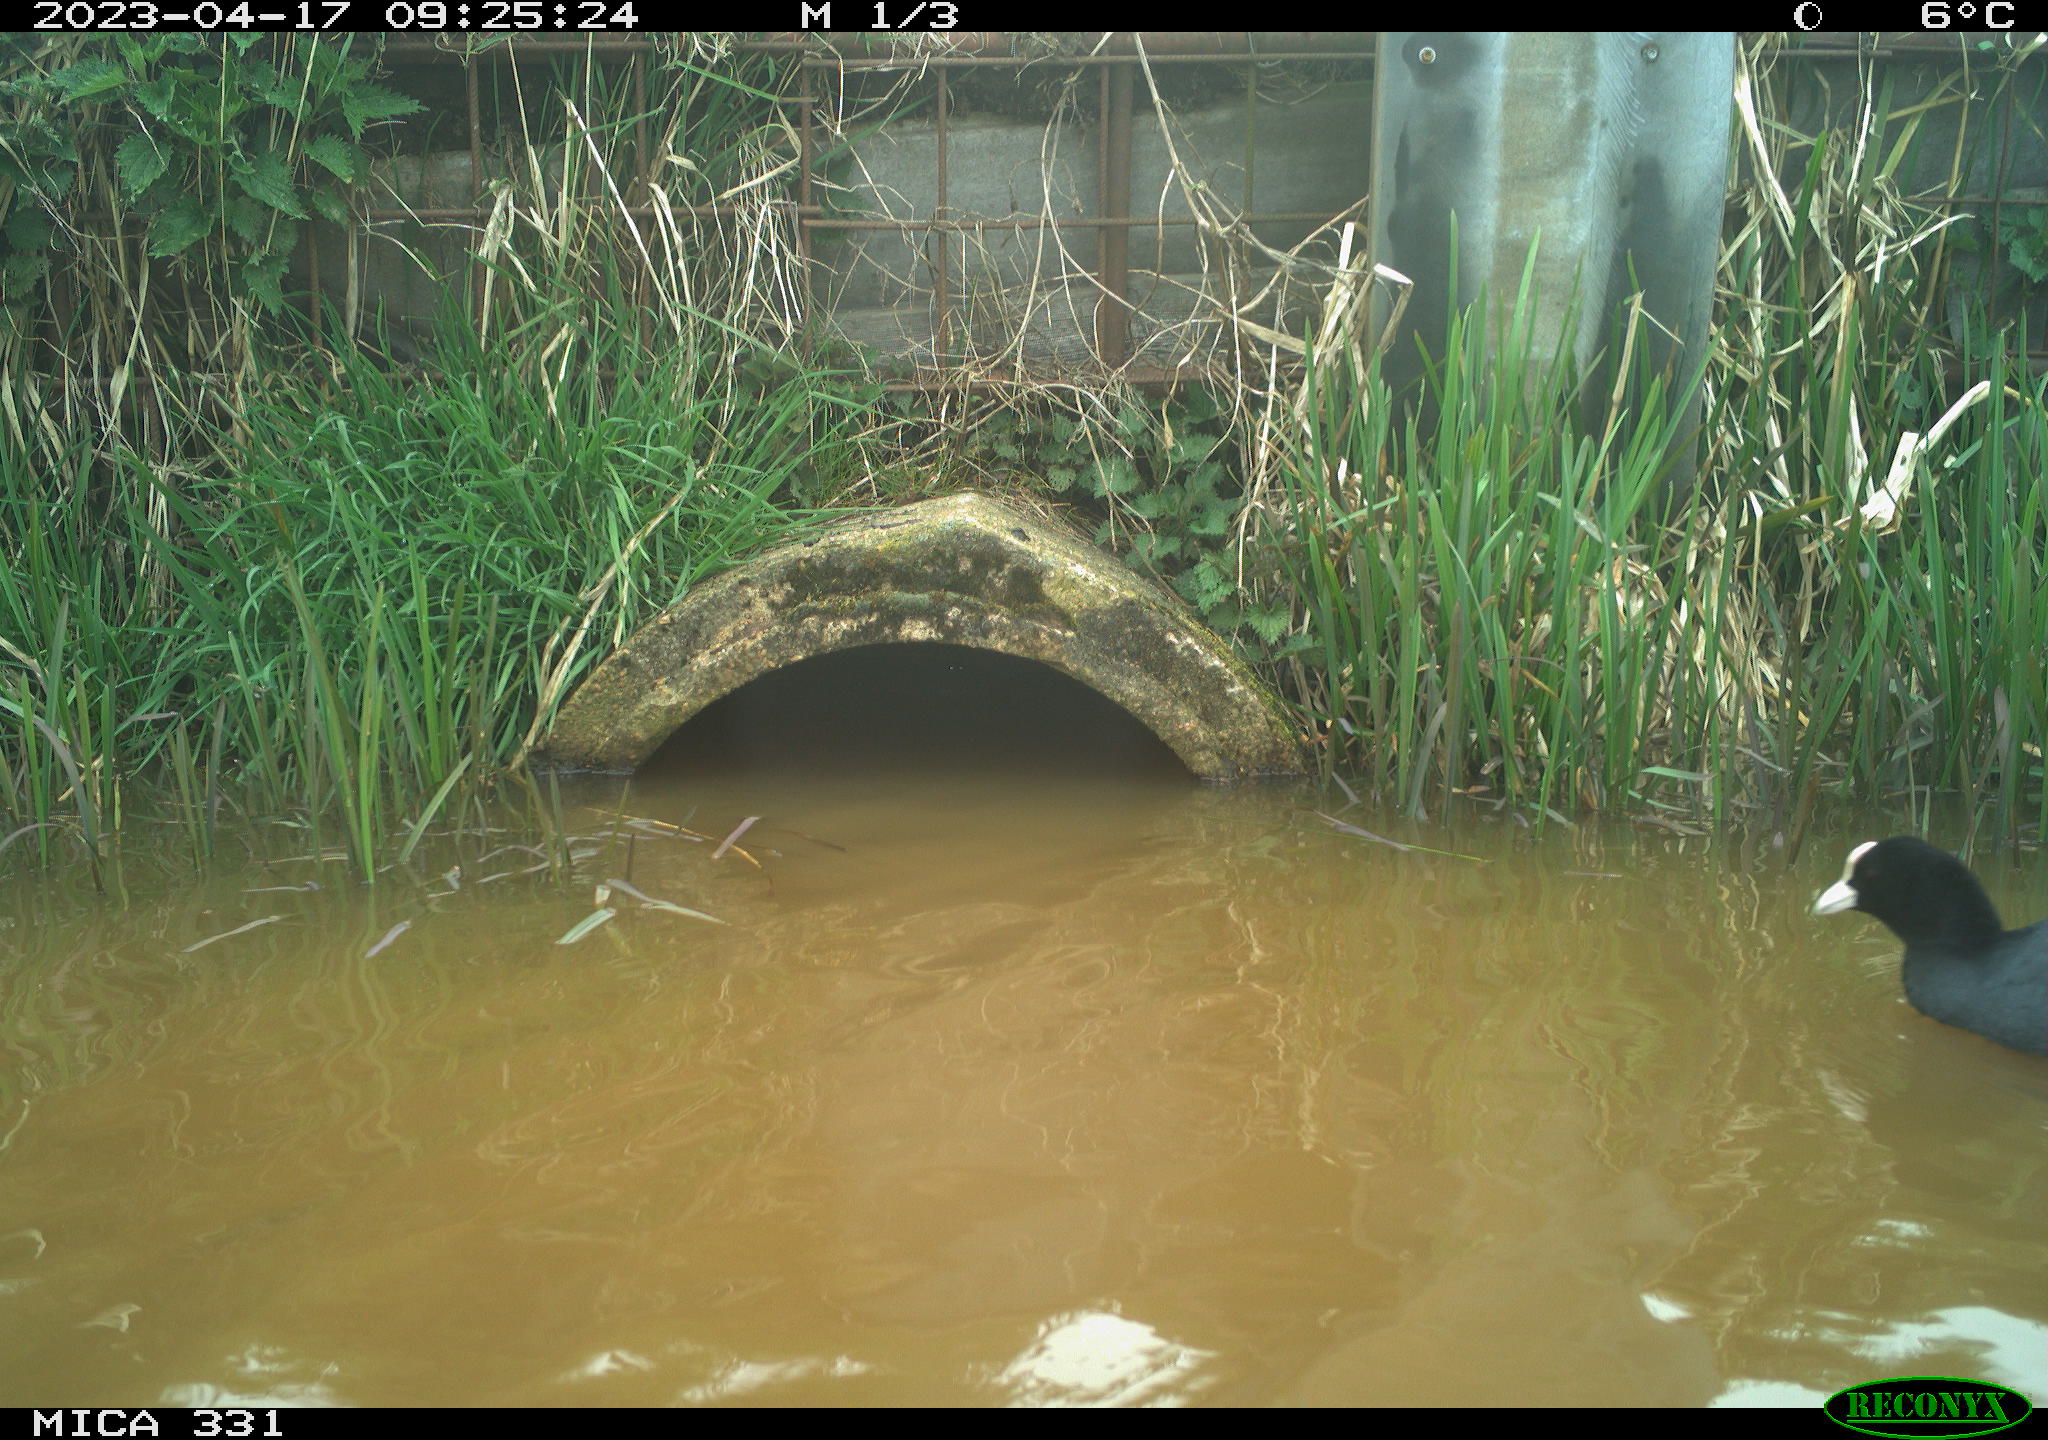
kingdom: Animalia
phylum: Chordata
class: Aves
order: Gruiformes
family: Rallidae
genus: Fulica
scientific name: Fulica atra
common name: Eurasian coot
